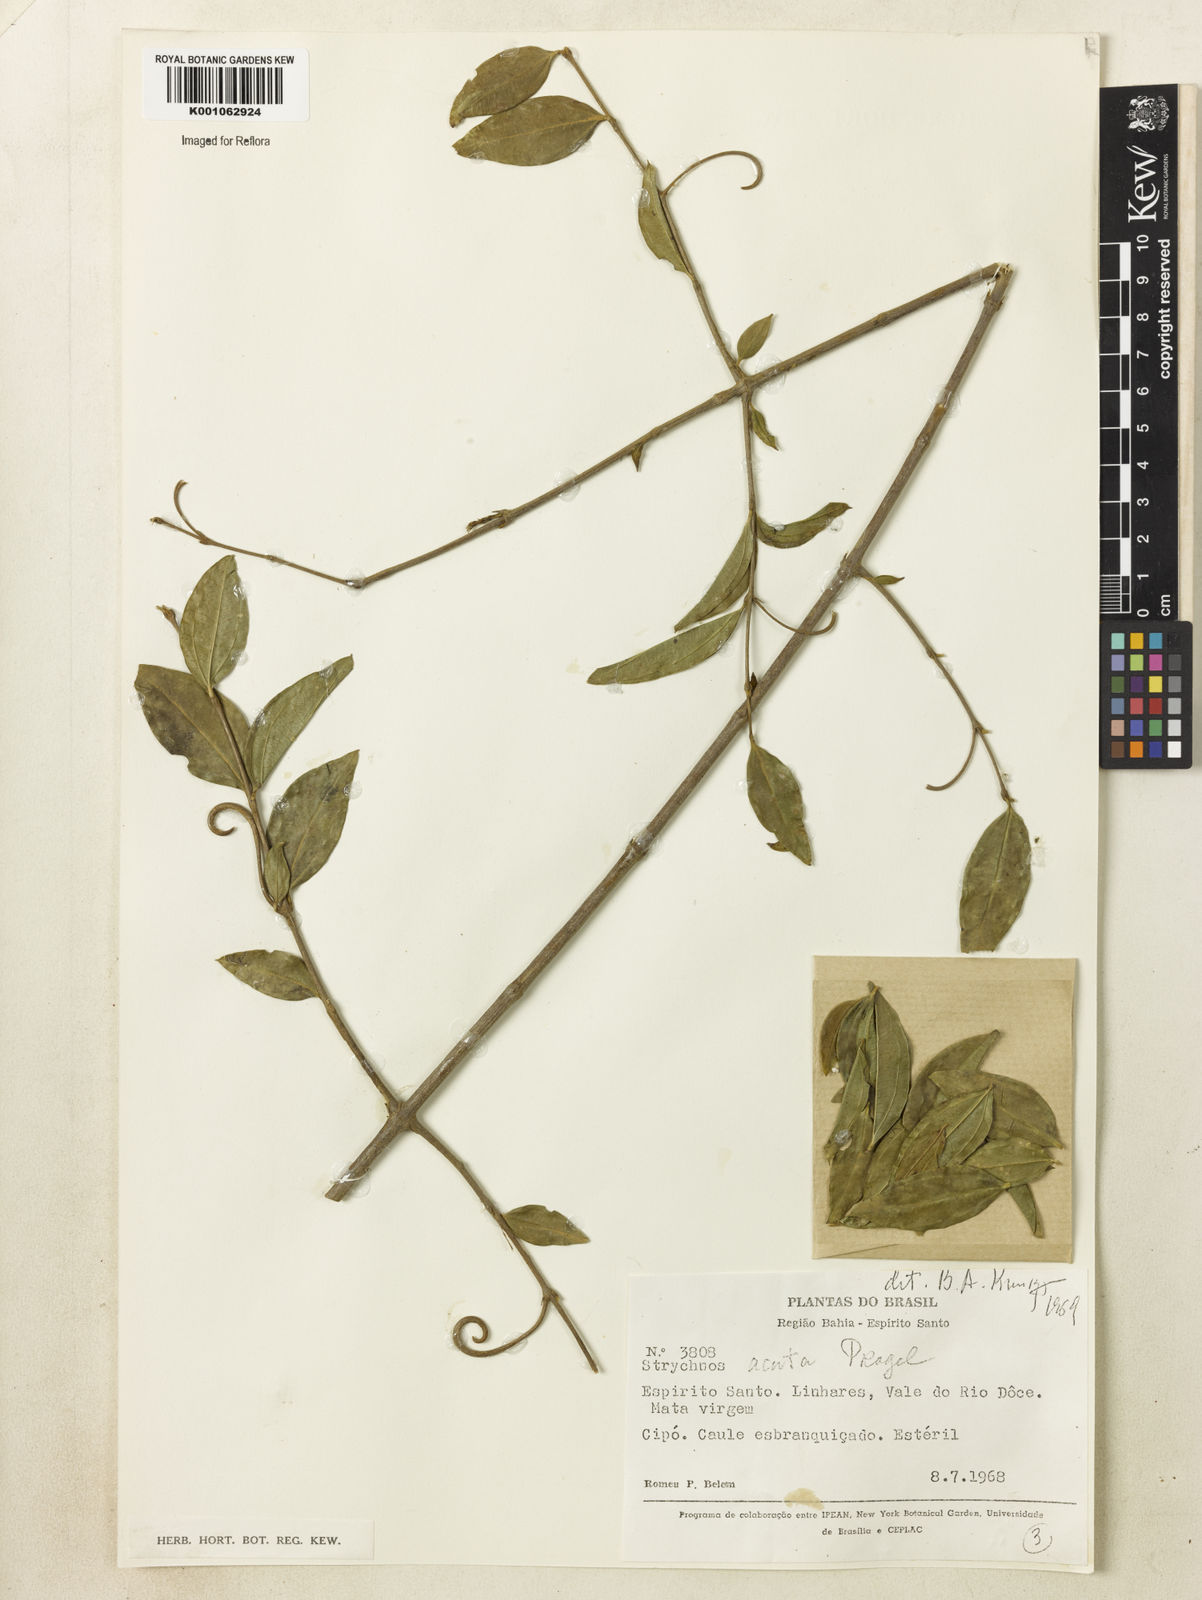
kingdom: Plantae
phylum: Tracheophyta
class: Magnoliopsida
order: Gentianales
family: Loganiaceae
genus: Strychnos
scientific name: Strychnos acuta
